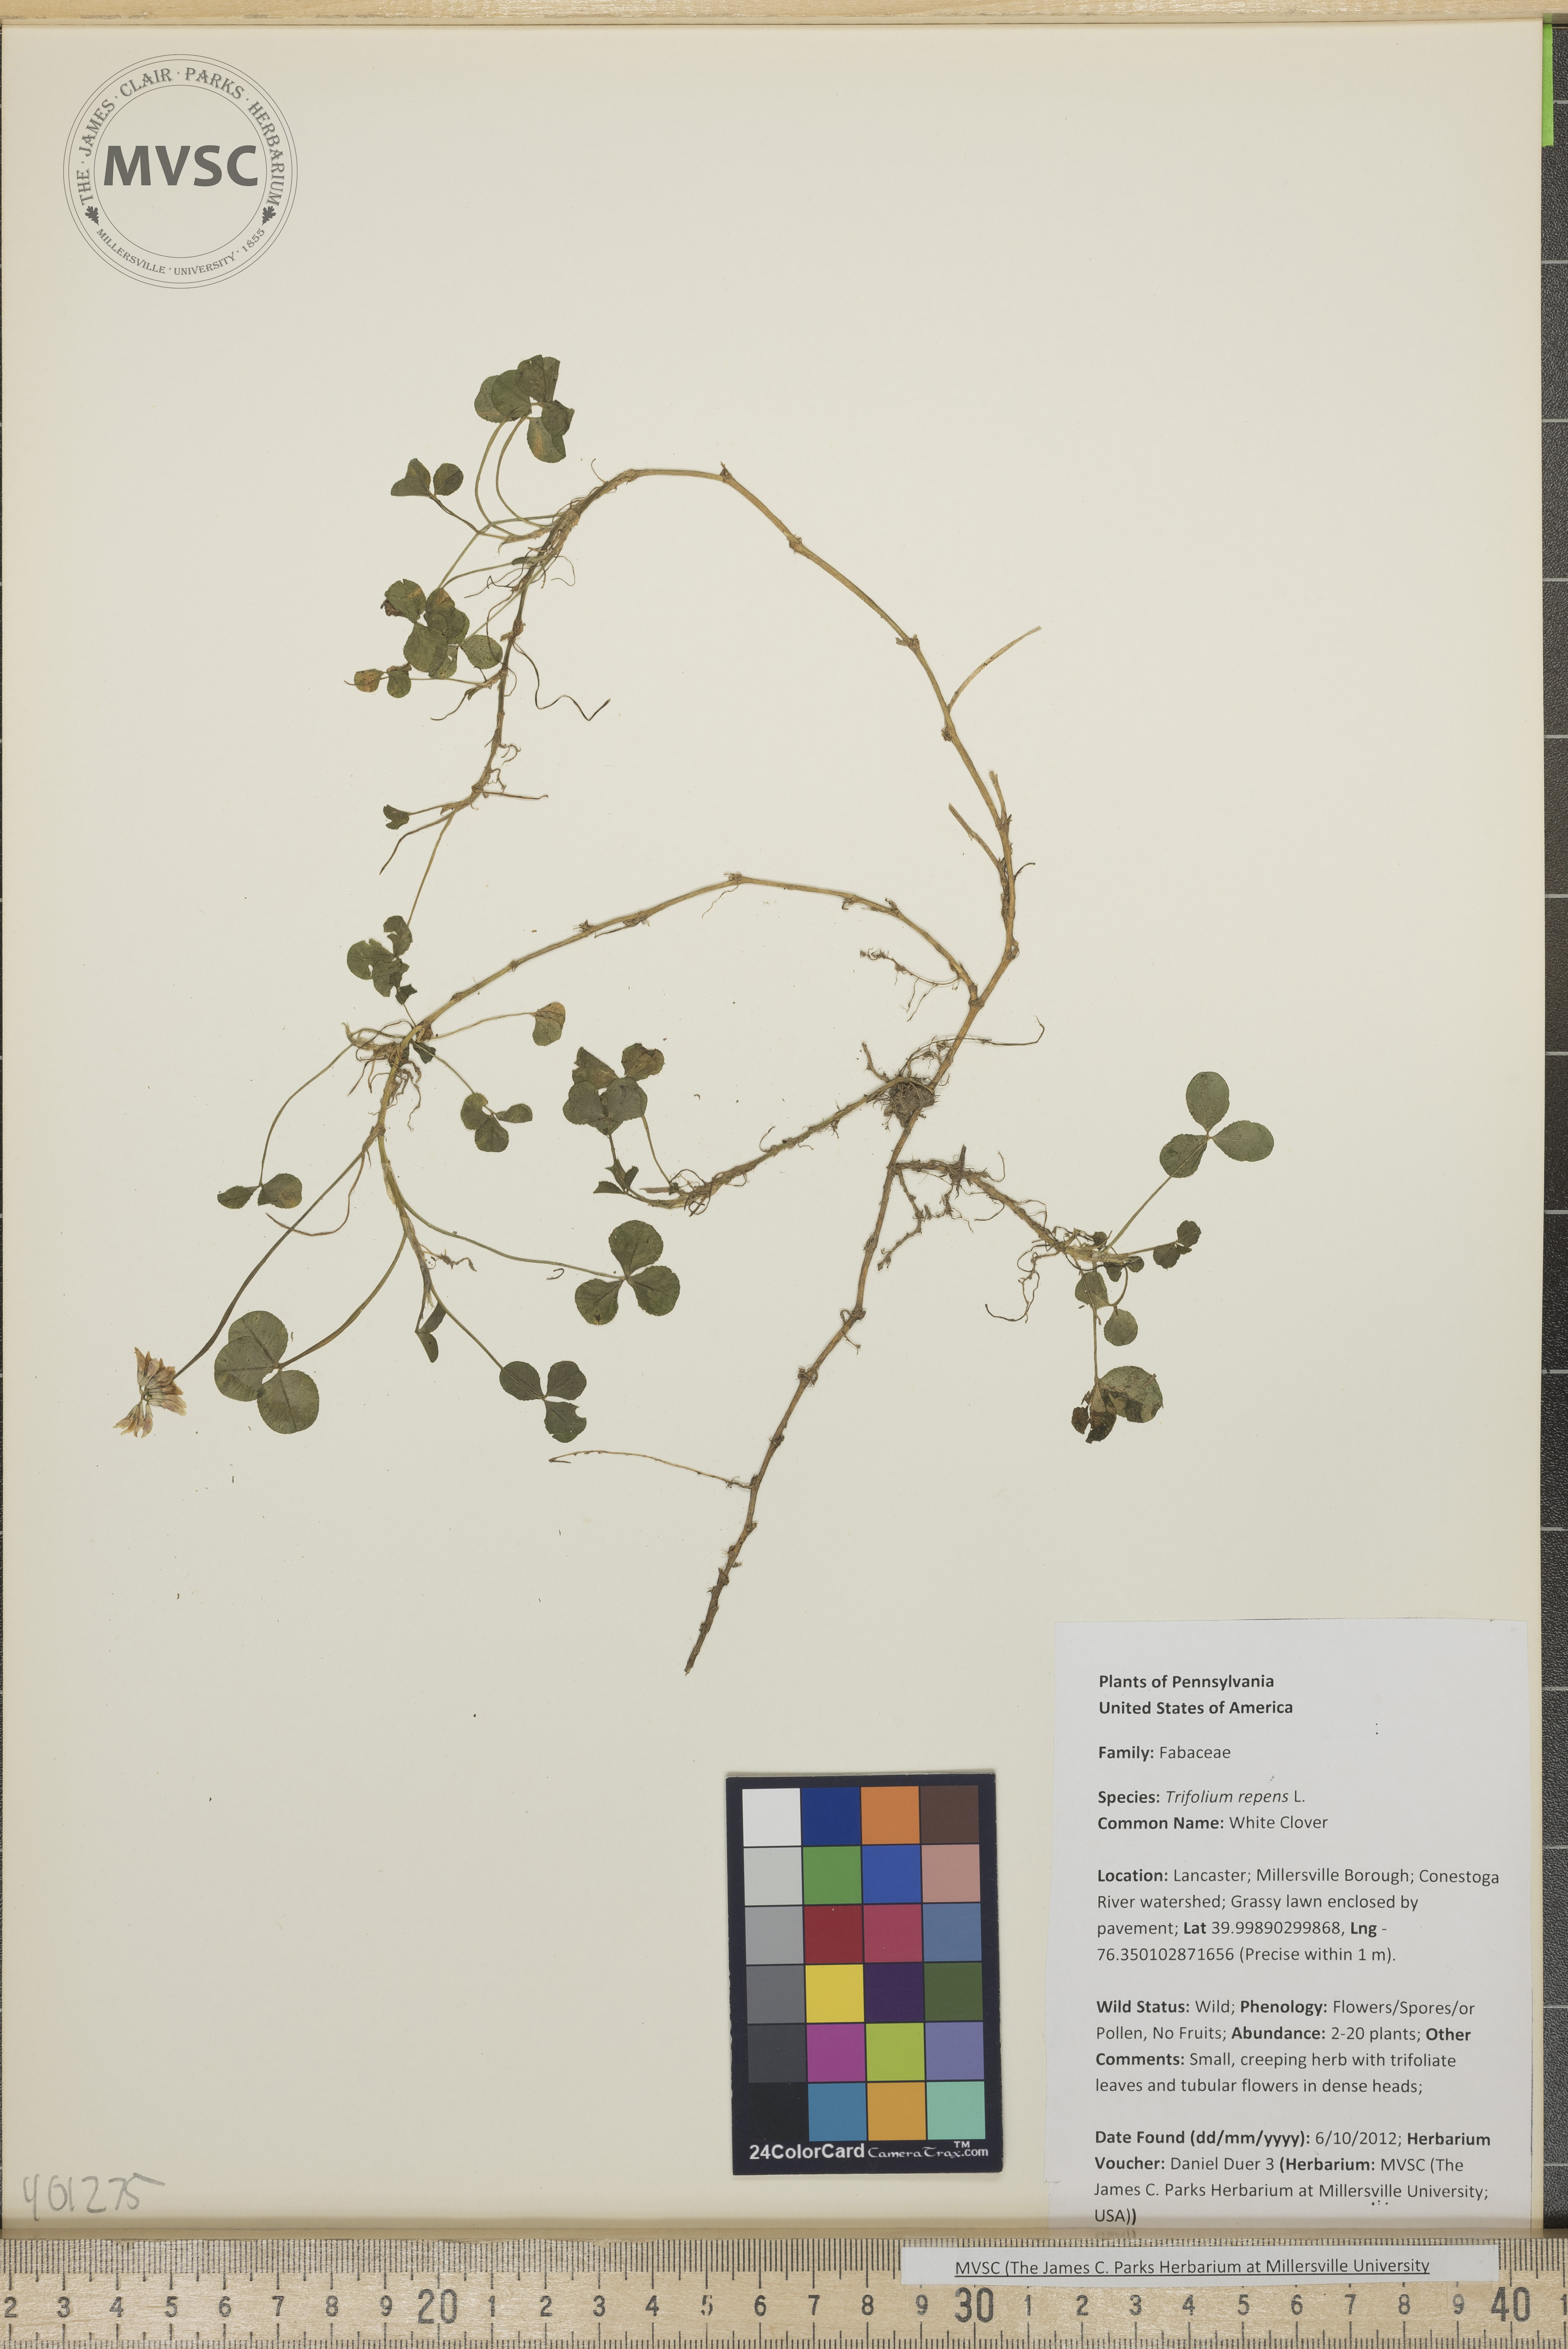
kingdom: Plantae
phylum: Tracheophyta
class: Magnoliopsida
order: Fabales
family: Fabaceae
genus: Trifolium
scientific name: Trifolium repens
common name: White Clover
